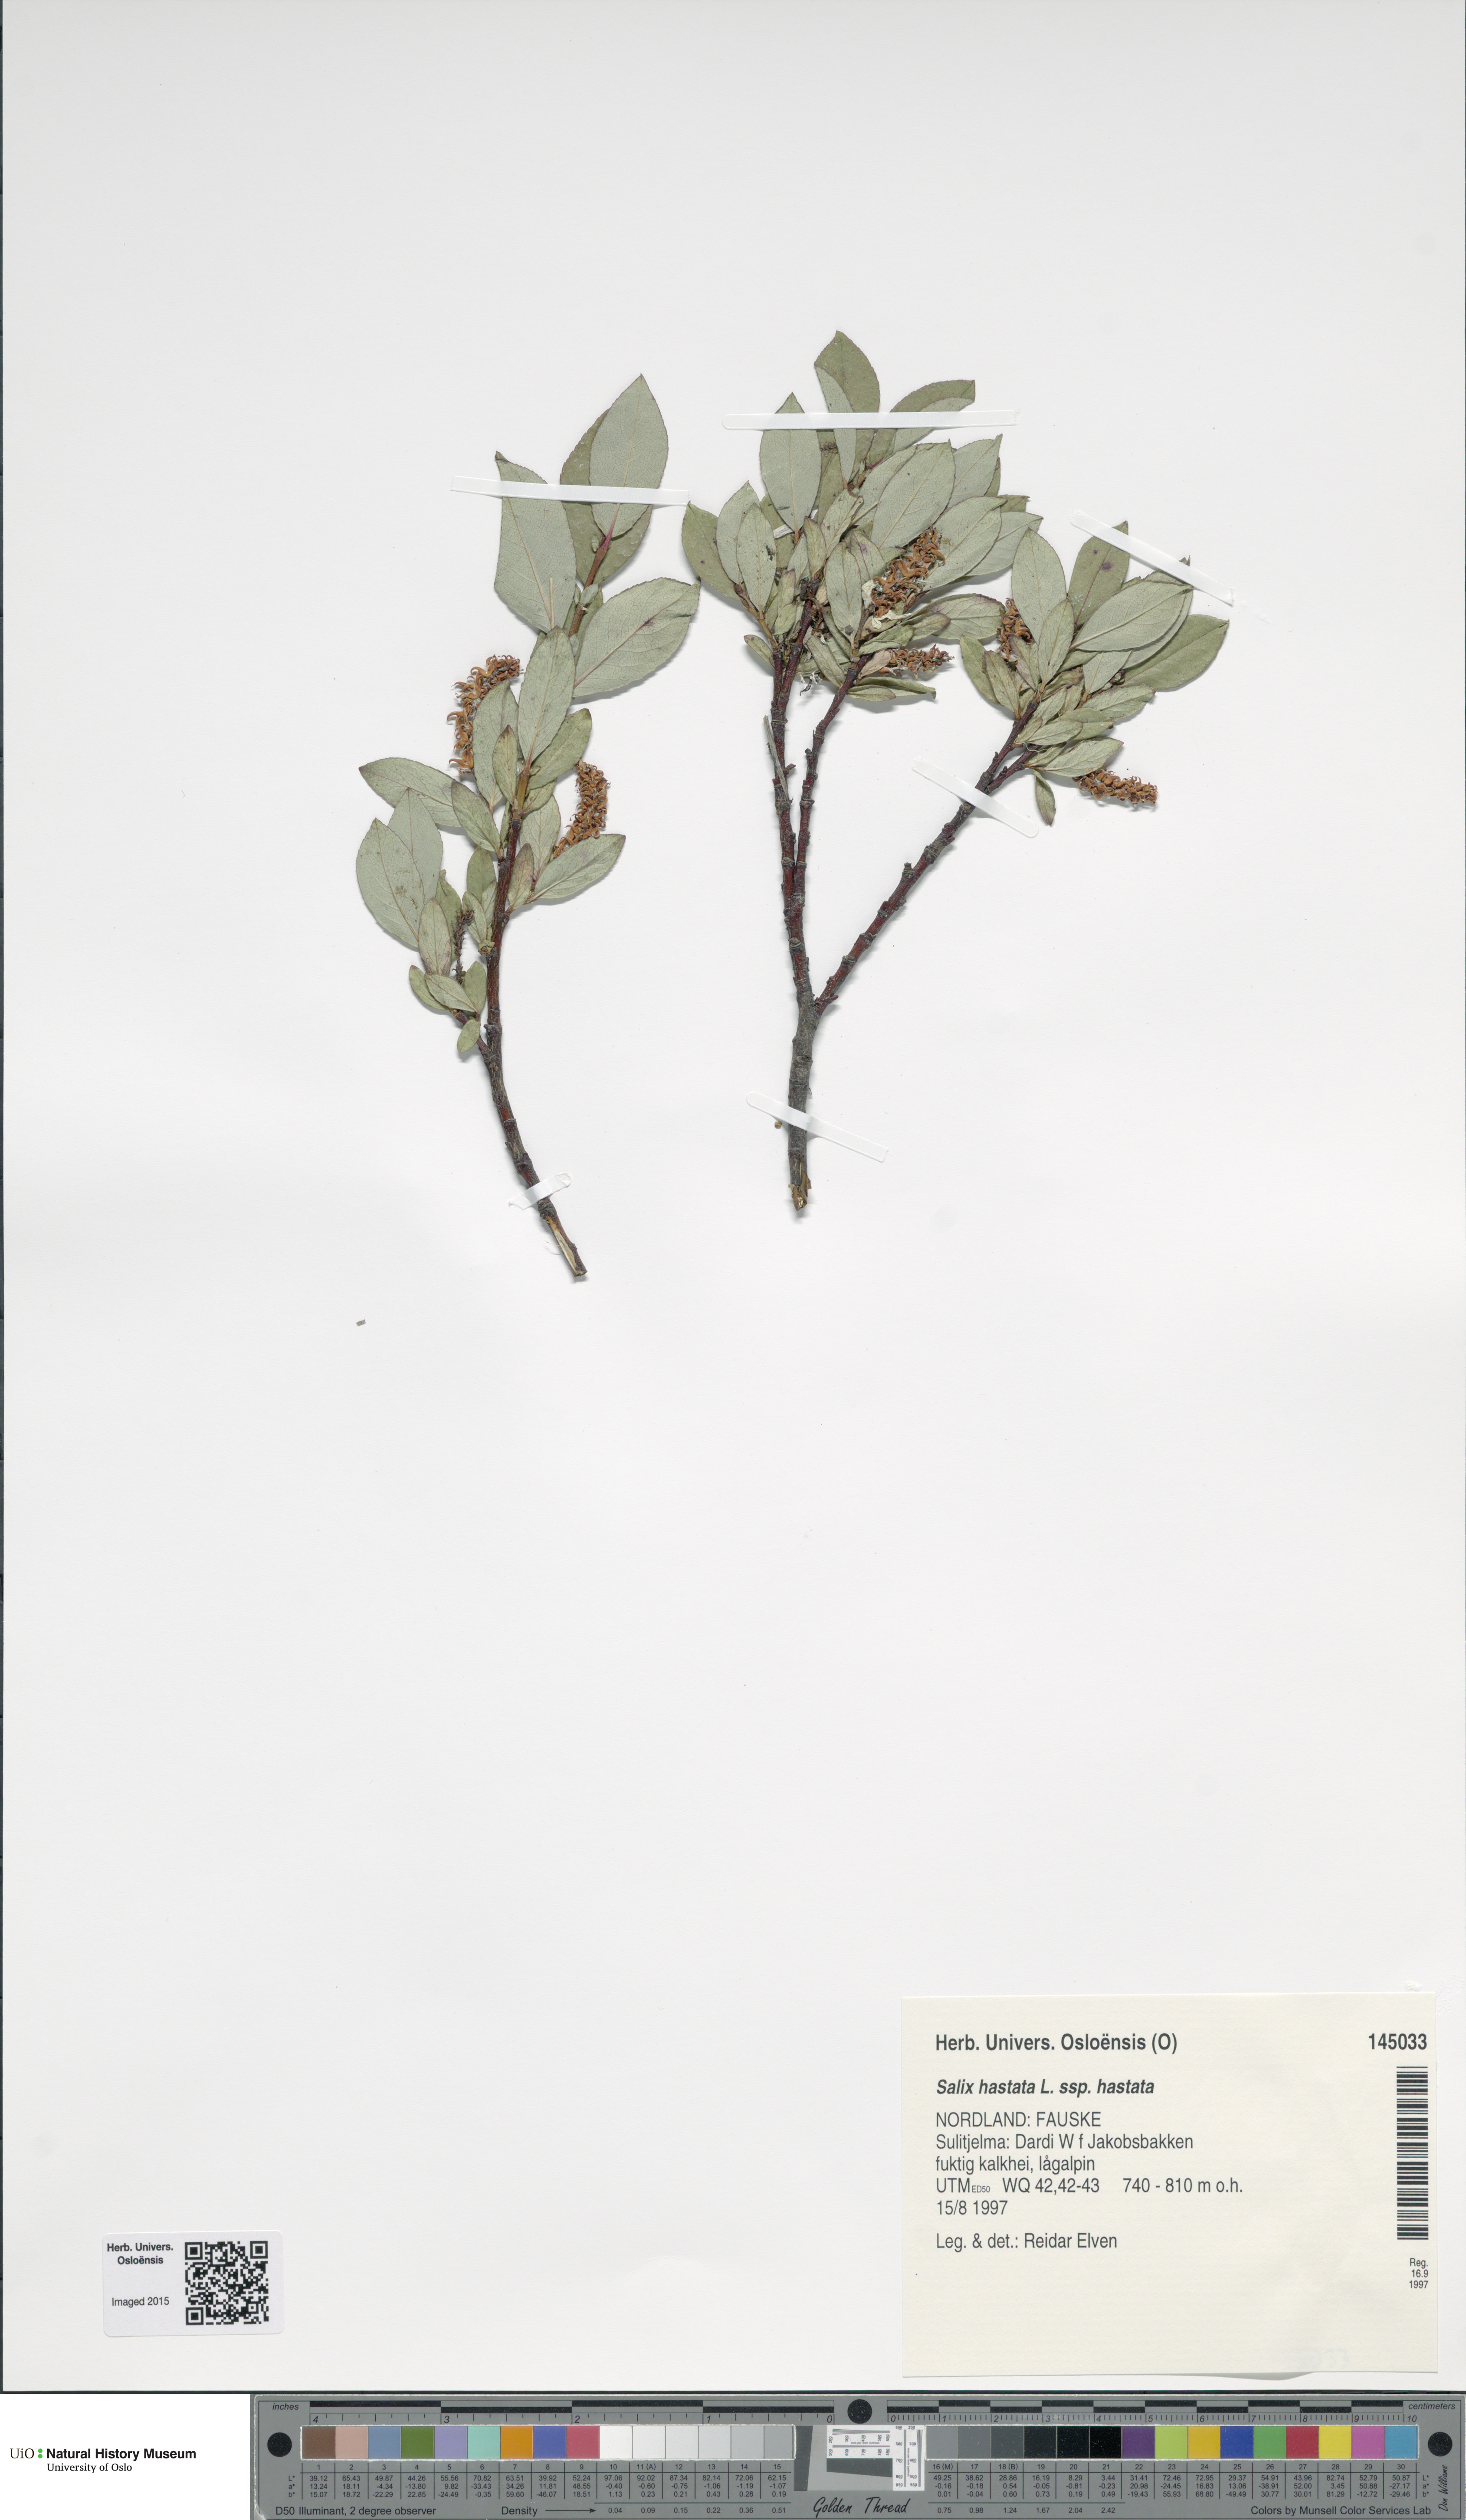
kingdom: Plantae
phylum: Tracheophyta
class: Magnoliopsida
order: Malpighiales
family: Salicaceae
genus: Salix
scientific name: Salix hastata
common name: Halberd willow
